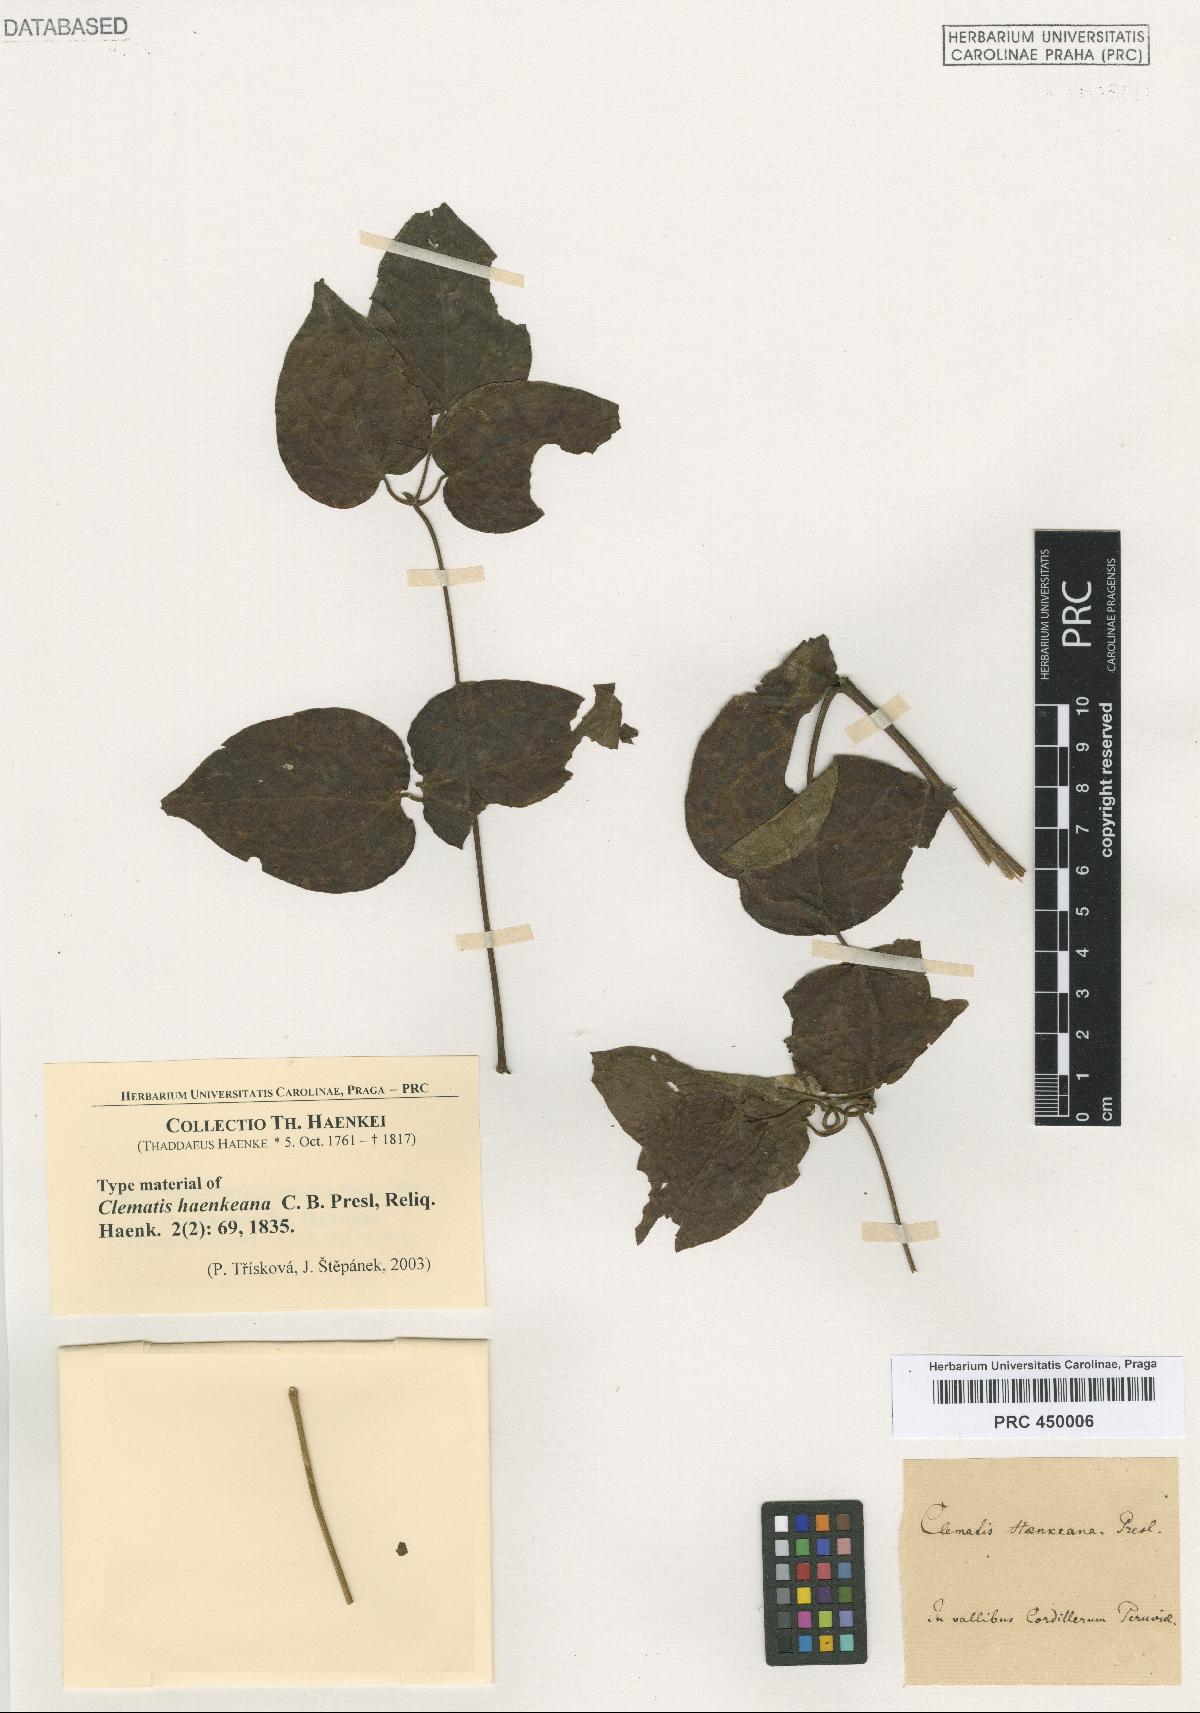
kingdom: Plantae
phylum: Tracheophyta
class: Magnoliopsida
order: Ranunculales
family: Ranunculaceae
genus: Clematis
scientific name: Clematis haenkeana
